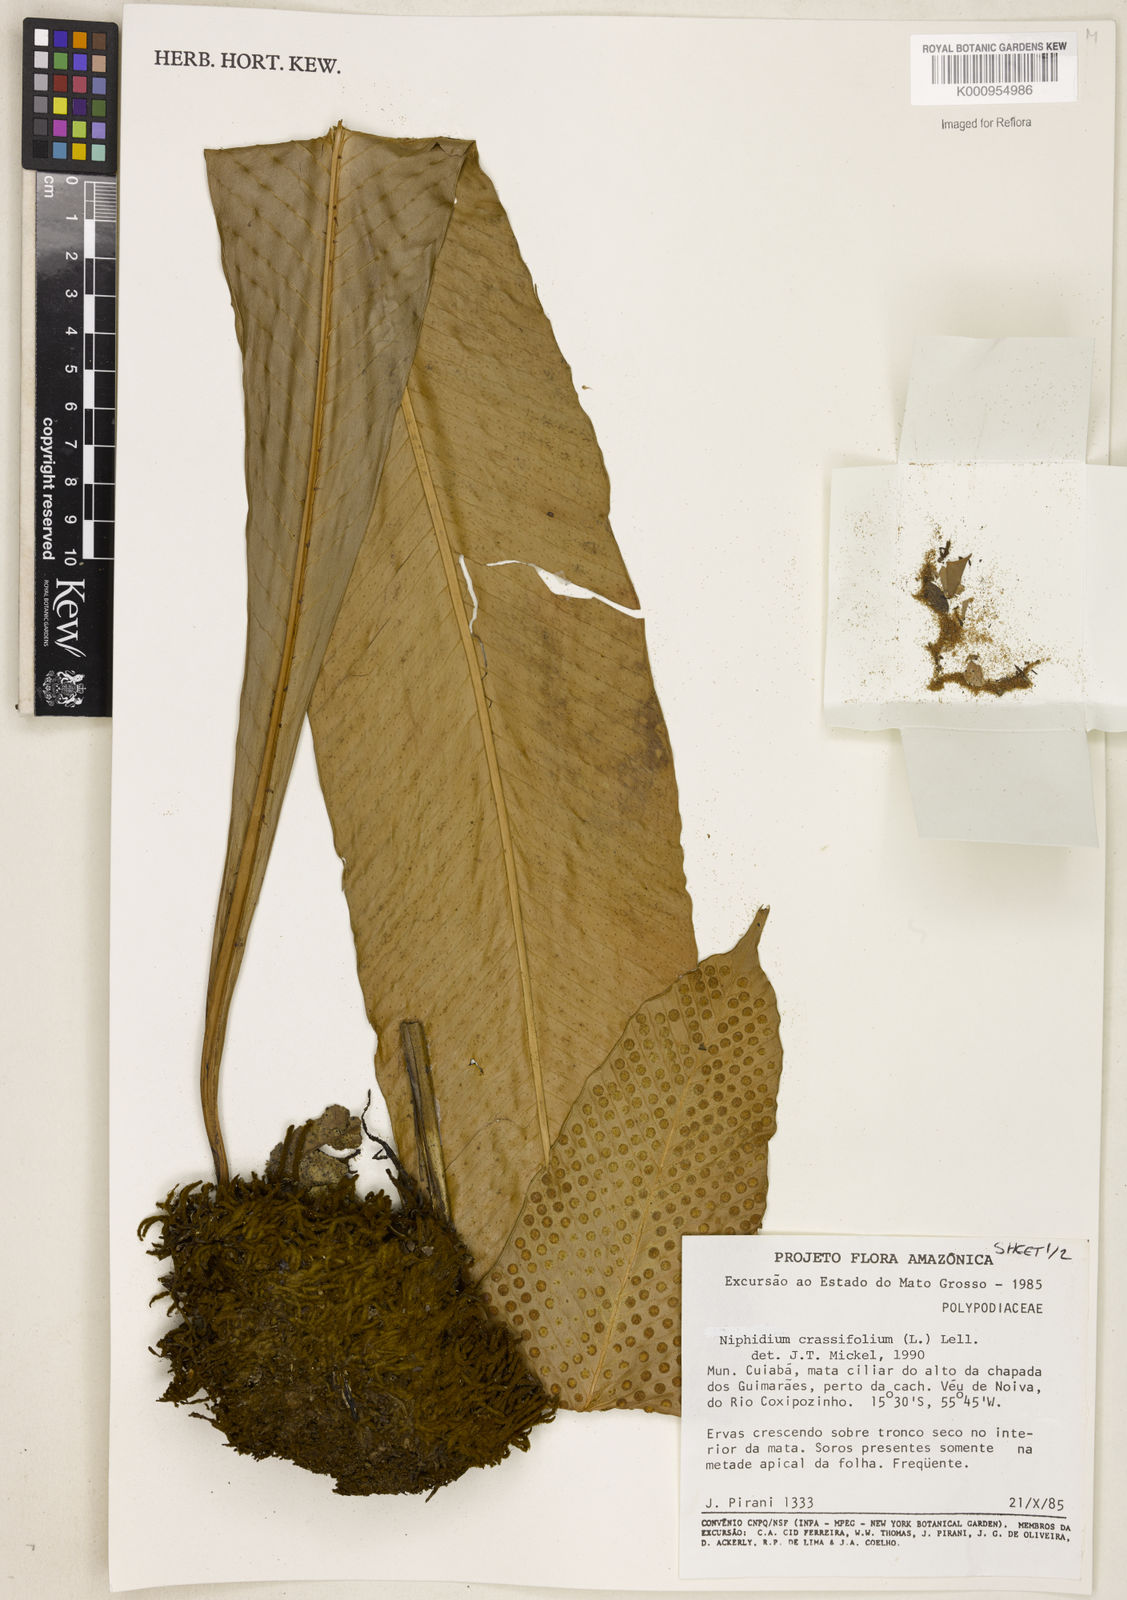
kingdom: Plantae
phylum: Tracheophyta
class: Polypodiopsida
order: Polypodiales
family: Polypodiaceae
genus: Niphidium
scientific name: Niphidium crassifolium
